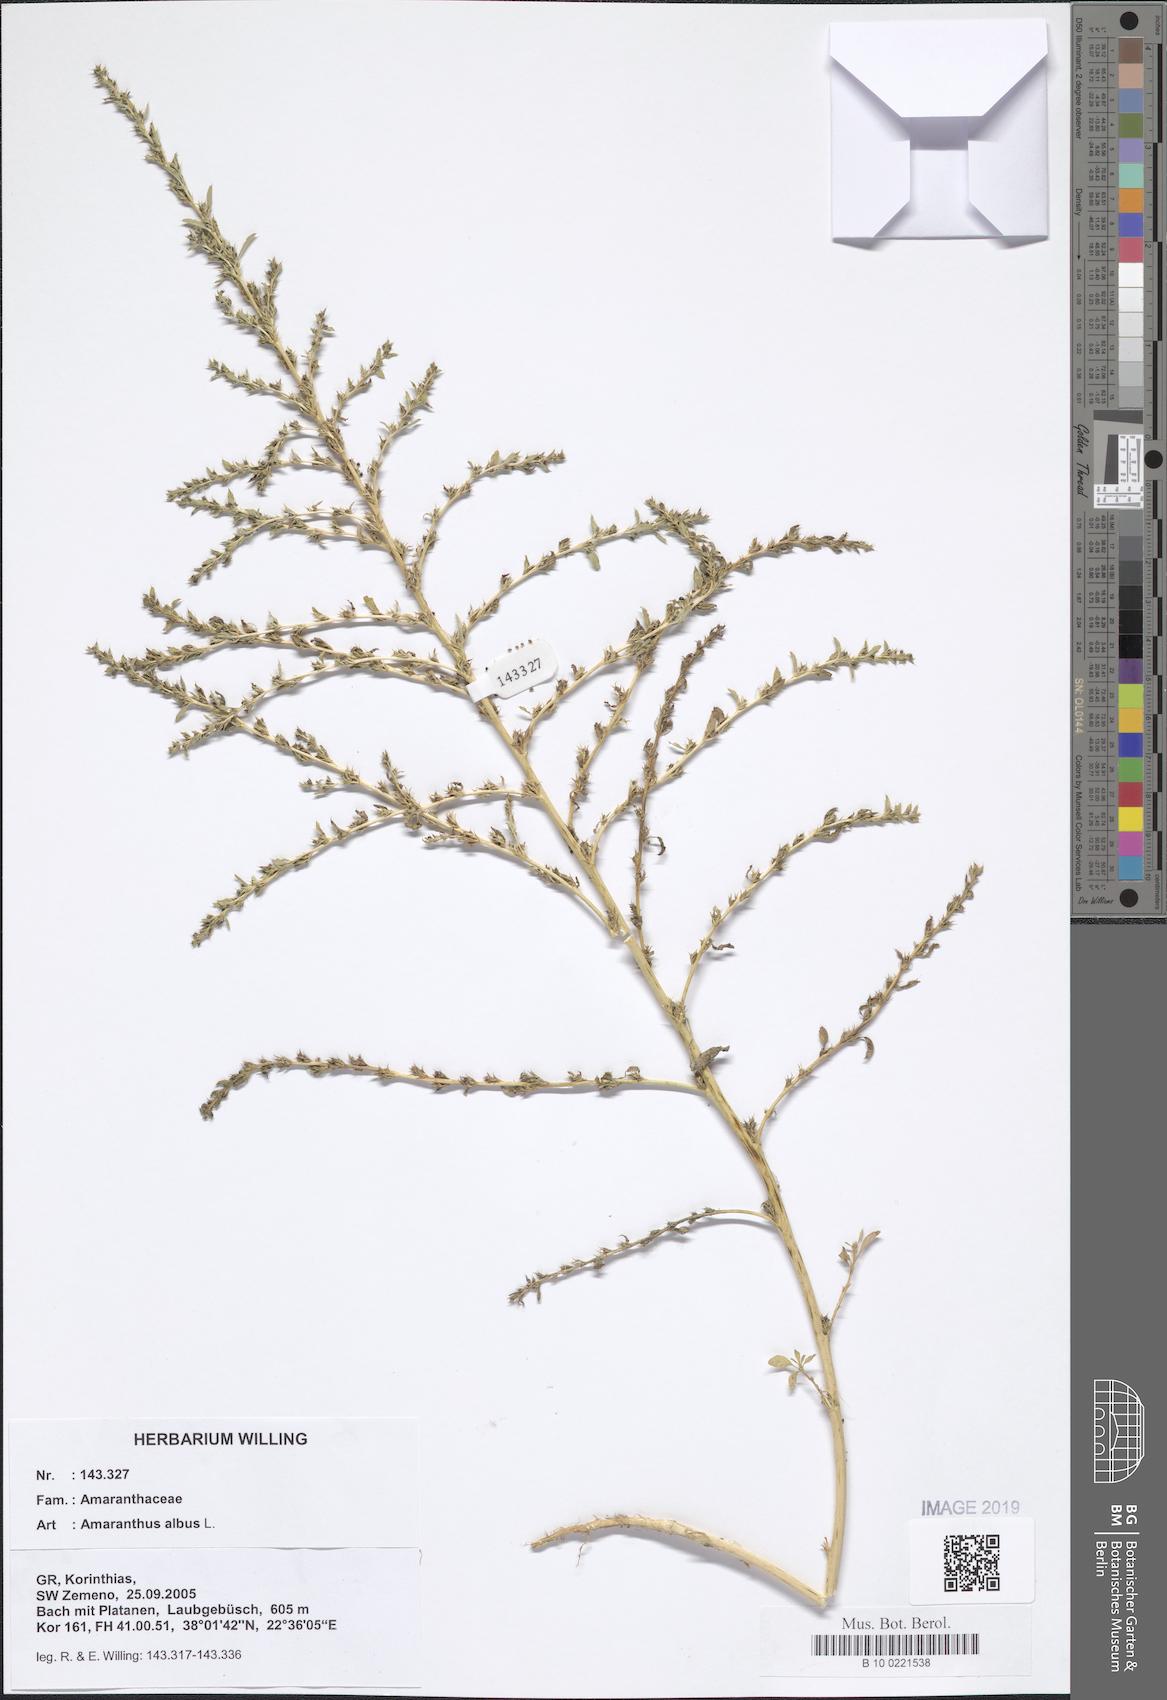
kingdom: Plantae
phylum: Tracheophyta
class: Magnoliopsida
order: Caryophyllales
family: Amaranthaceae
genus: Amaranthus
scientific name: Amaranthus albus
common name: White pigweed
